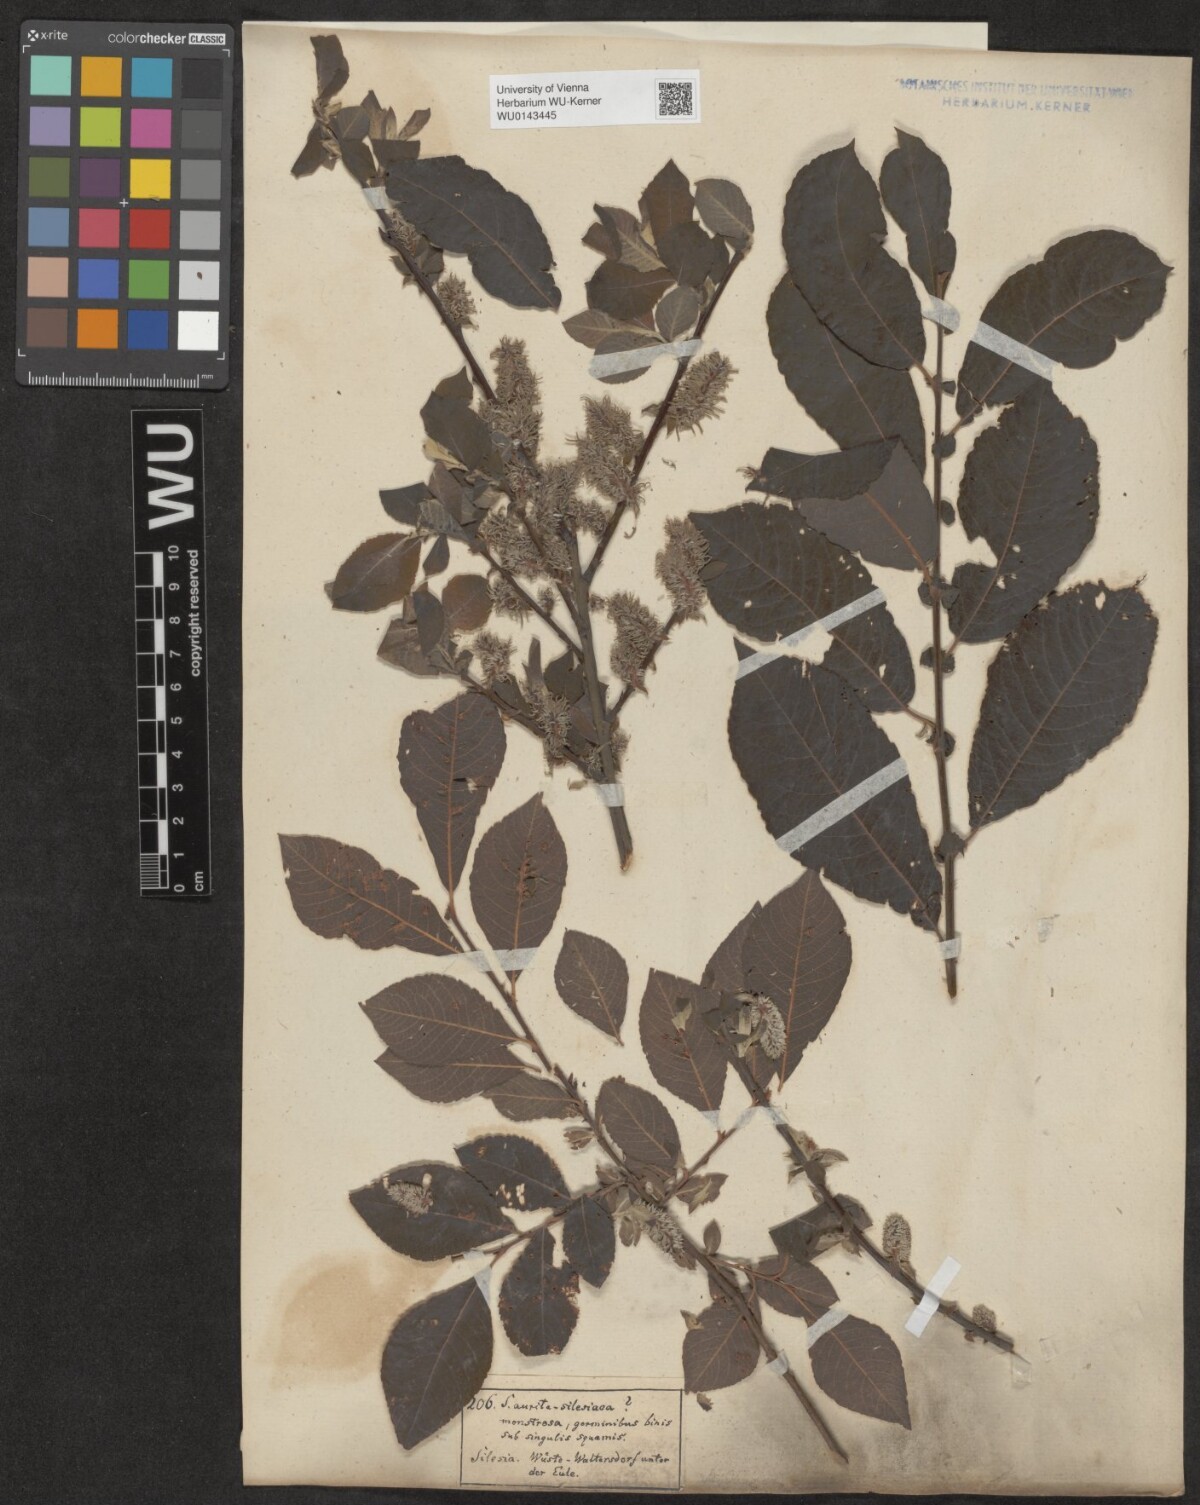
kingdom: Plantae
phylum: Tracheophyta
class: Magnoliopsida
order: Malpighiales
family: Salicaceae
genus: Salix
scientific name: Salix silesiaca
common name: Silesian willow
